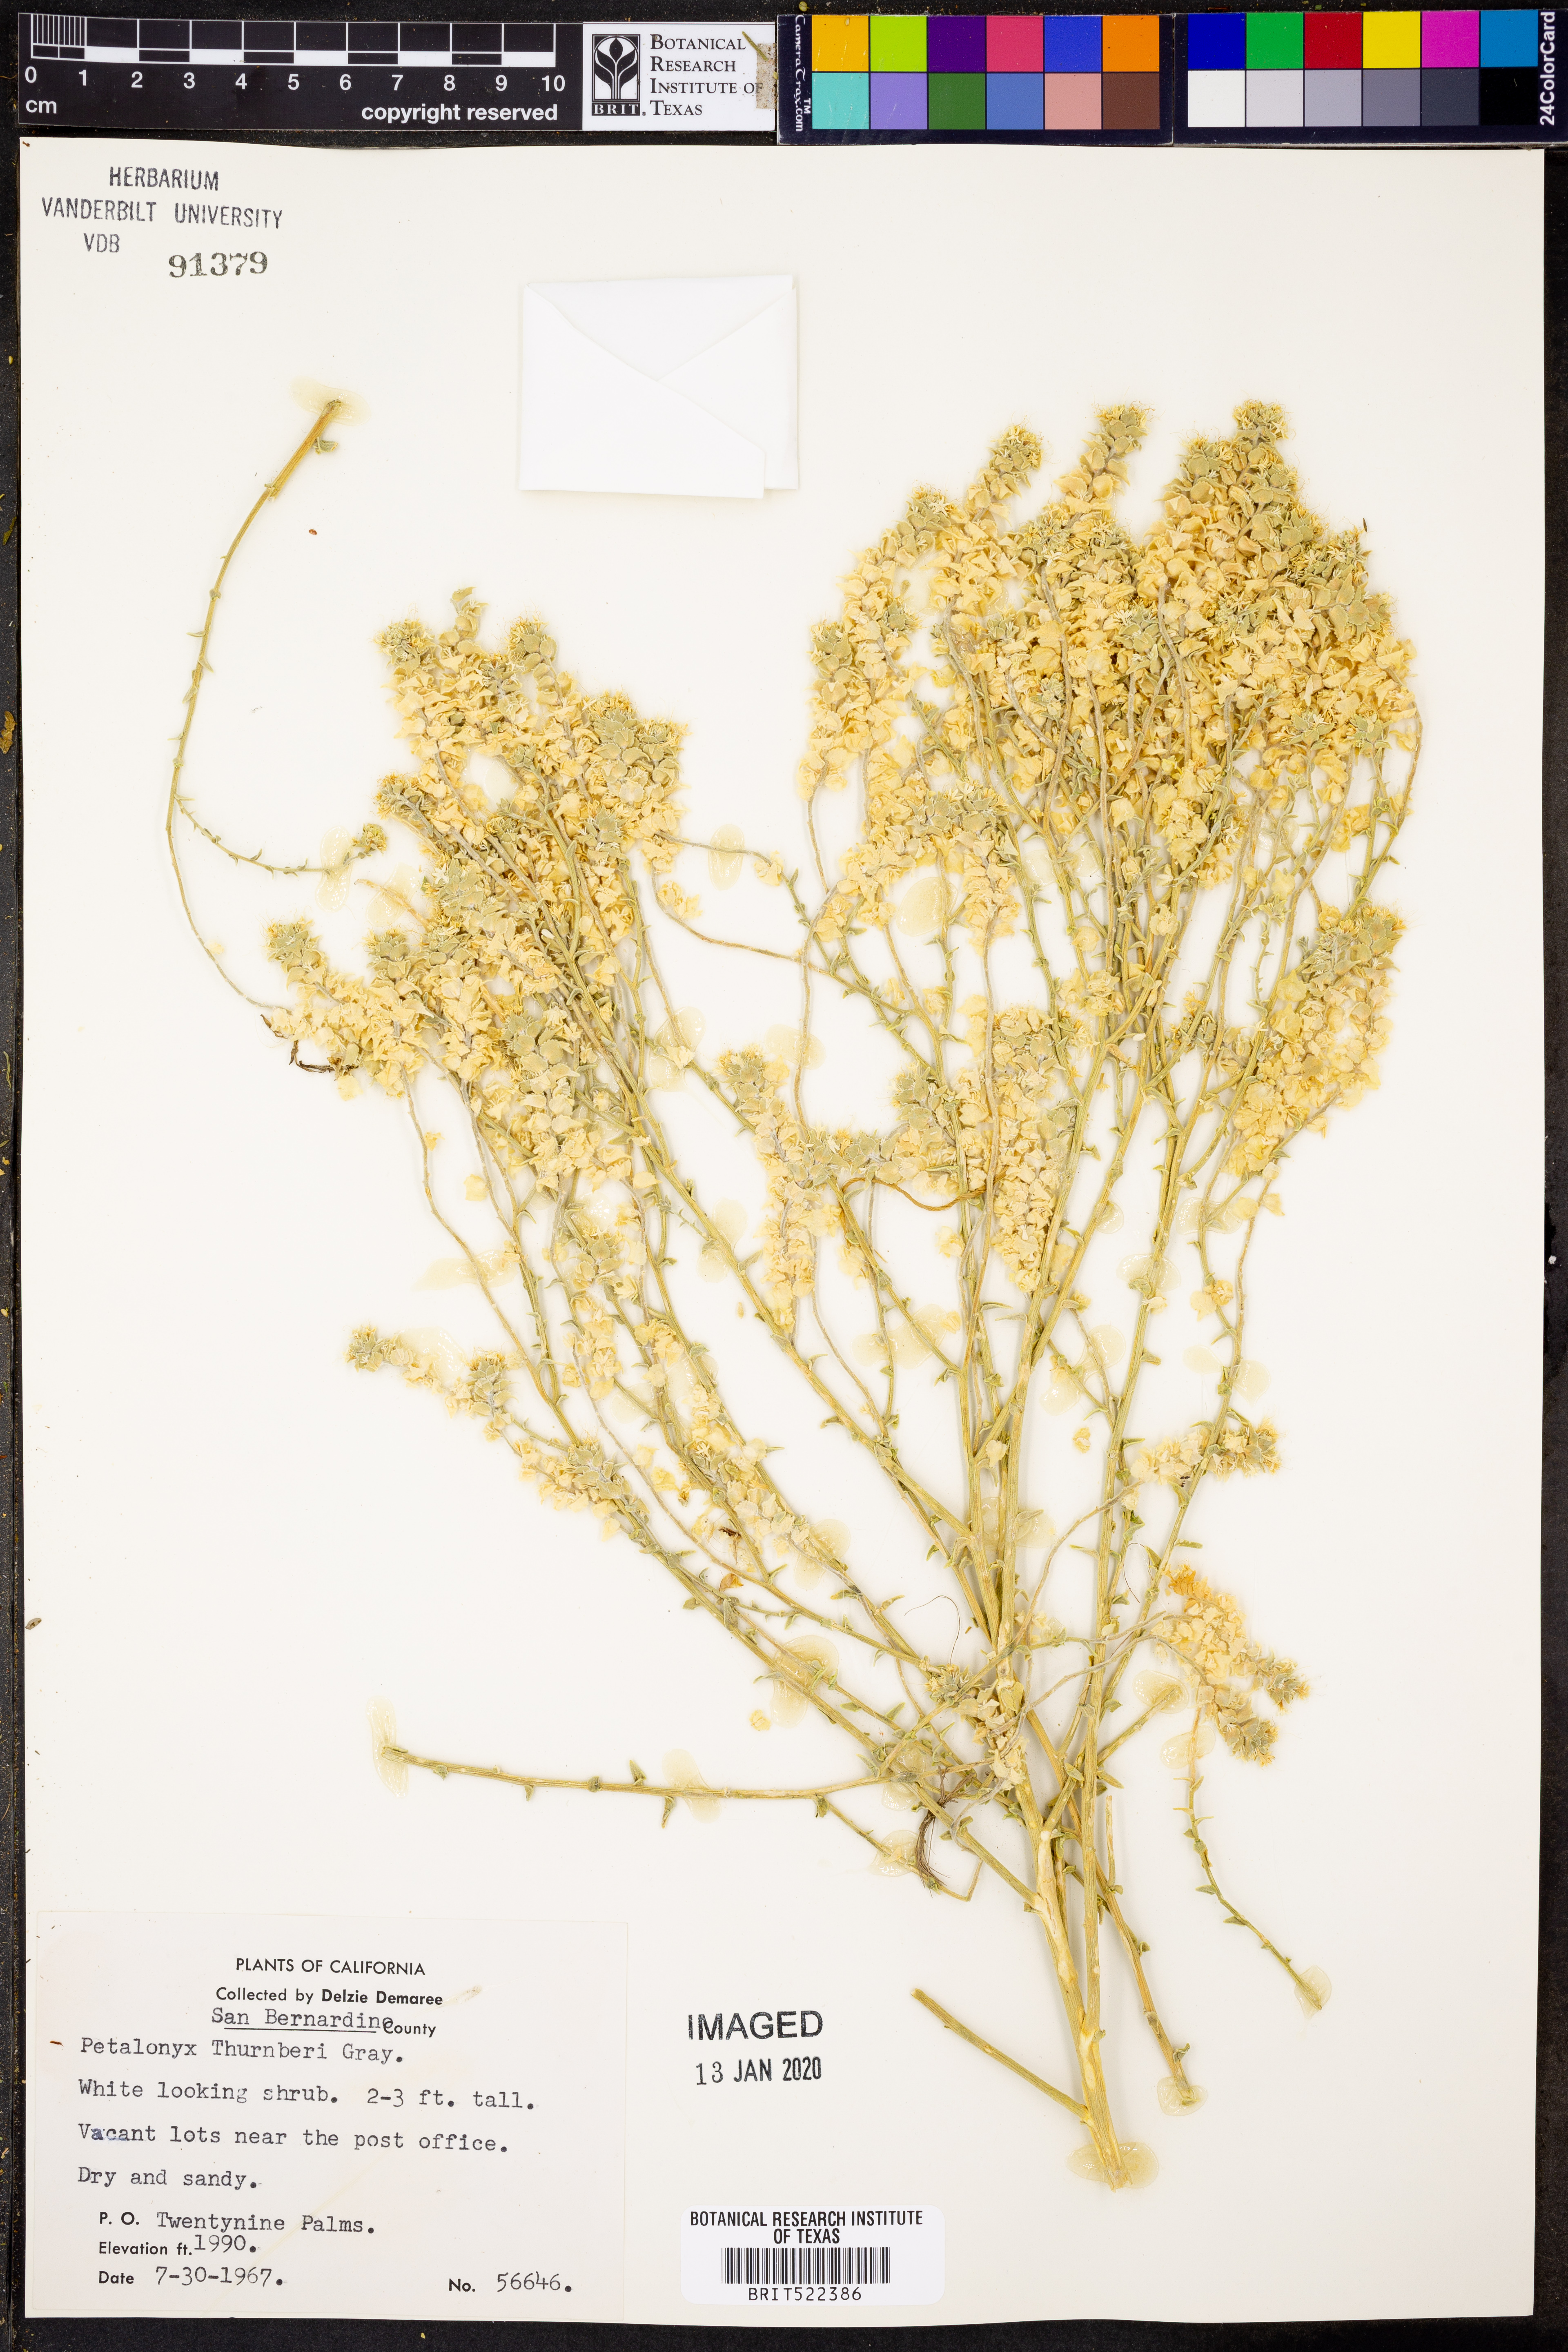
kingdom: Plantae
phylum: Tracheophyta
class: Magnoliopsida
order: Cornales
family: Loasaceae
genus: Petalonyx
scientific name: Petalonyx thurberi
